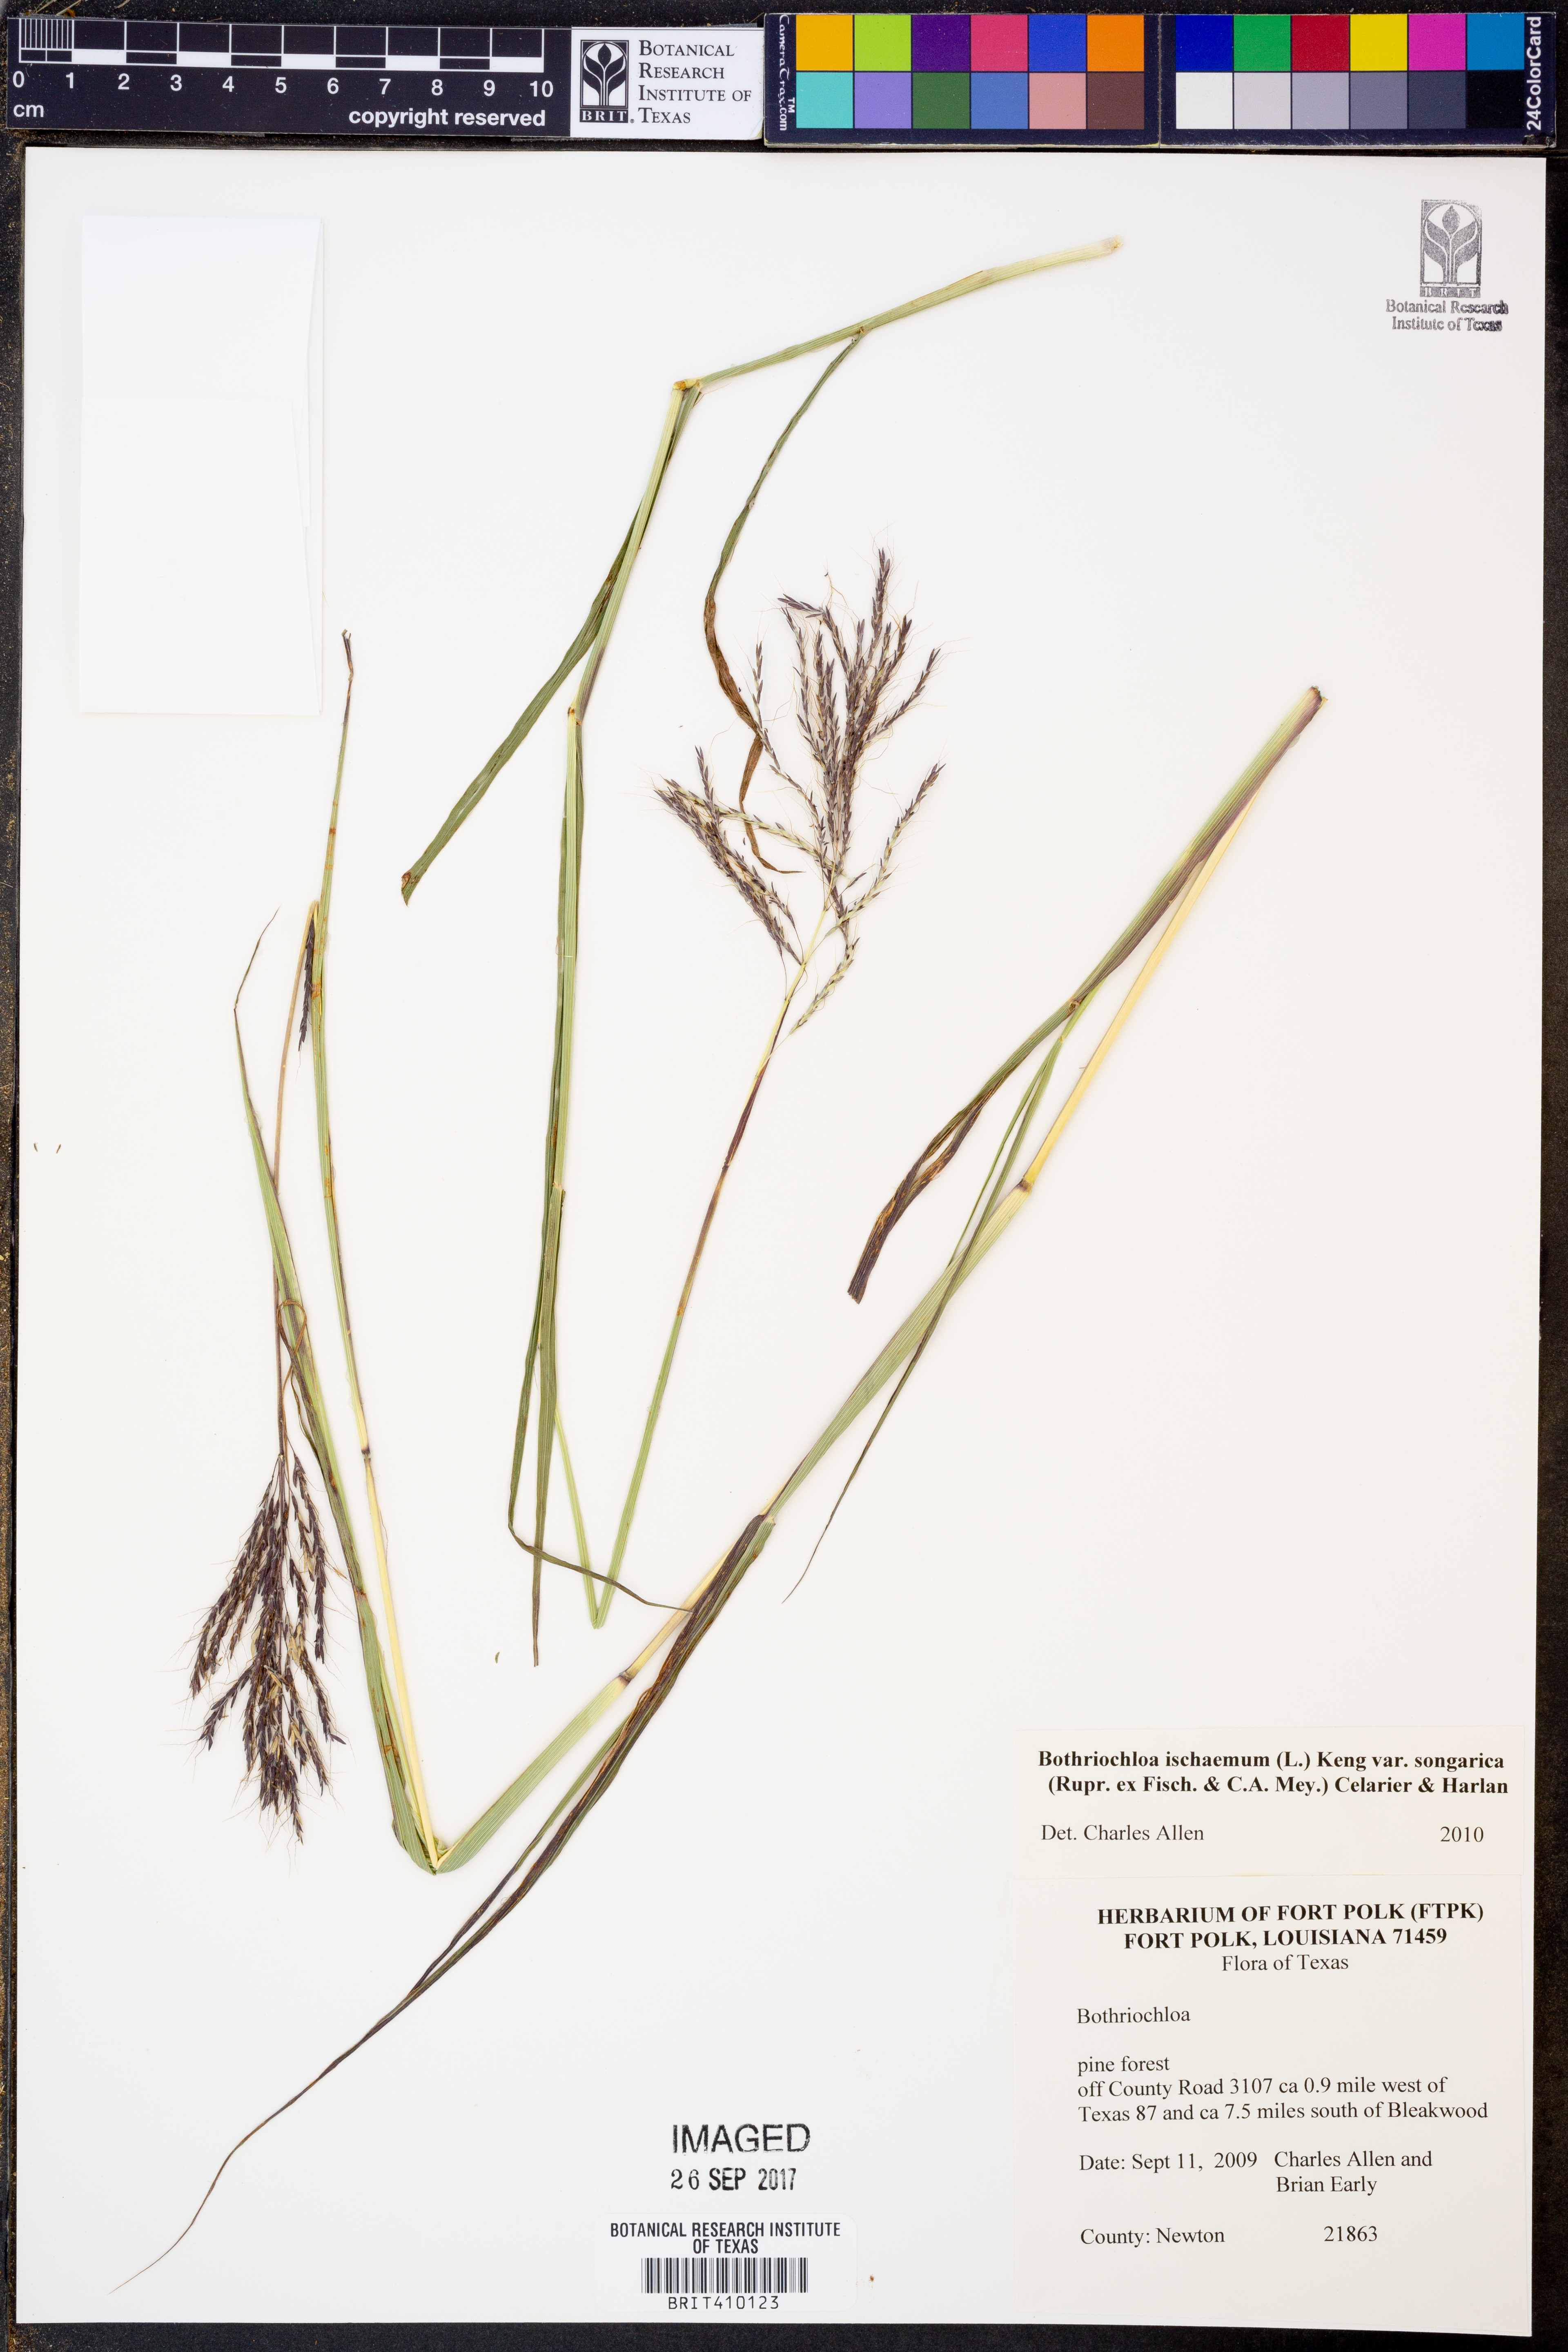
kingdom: Plantae
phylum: Tracheophyta
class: Liliopsida
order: Poales
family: Poaceae
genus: Bothriochloa
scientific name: Bothriochloa ischaemum
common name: Yellow bluestem
